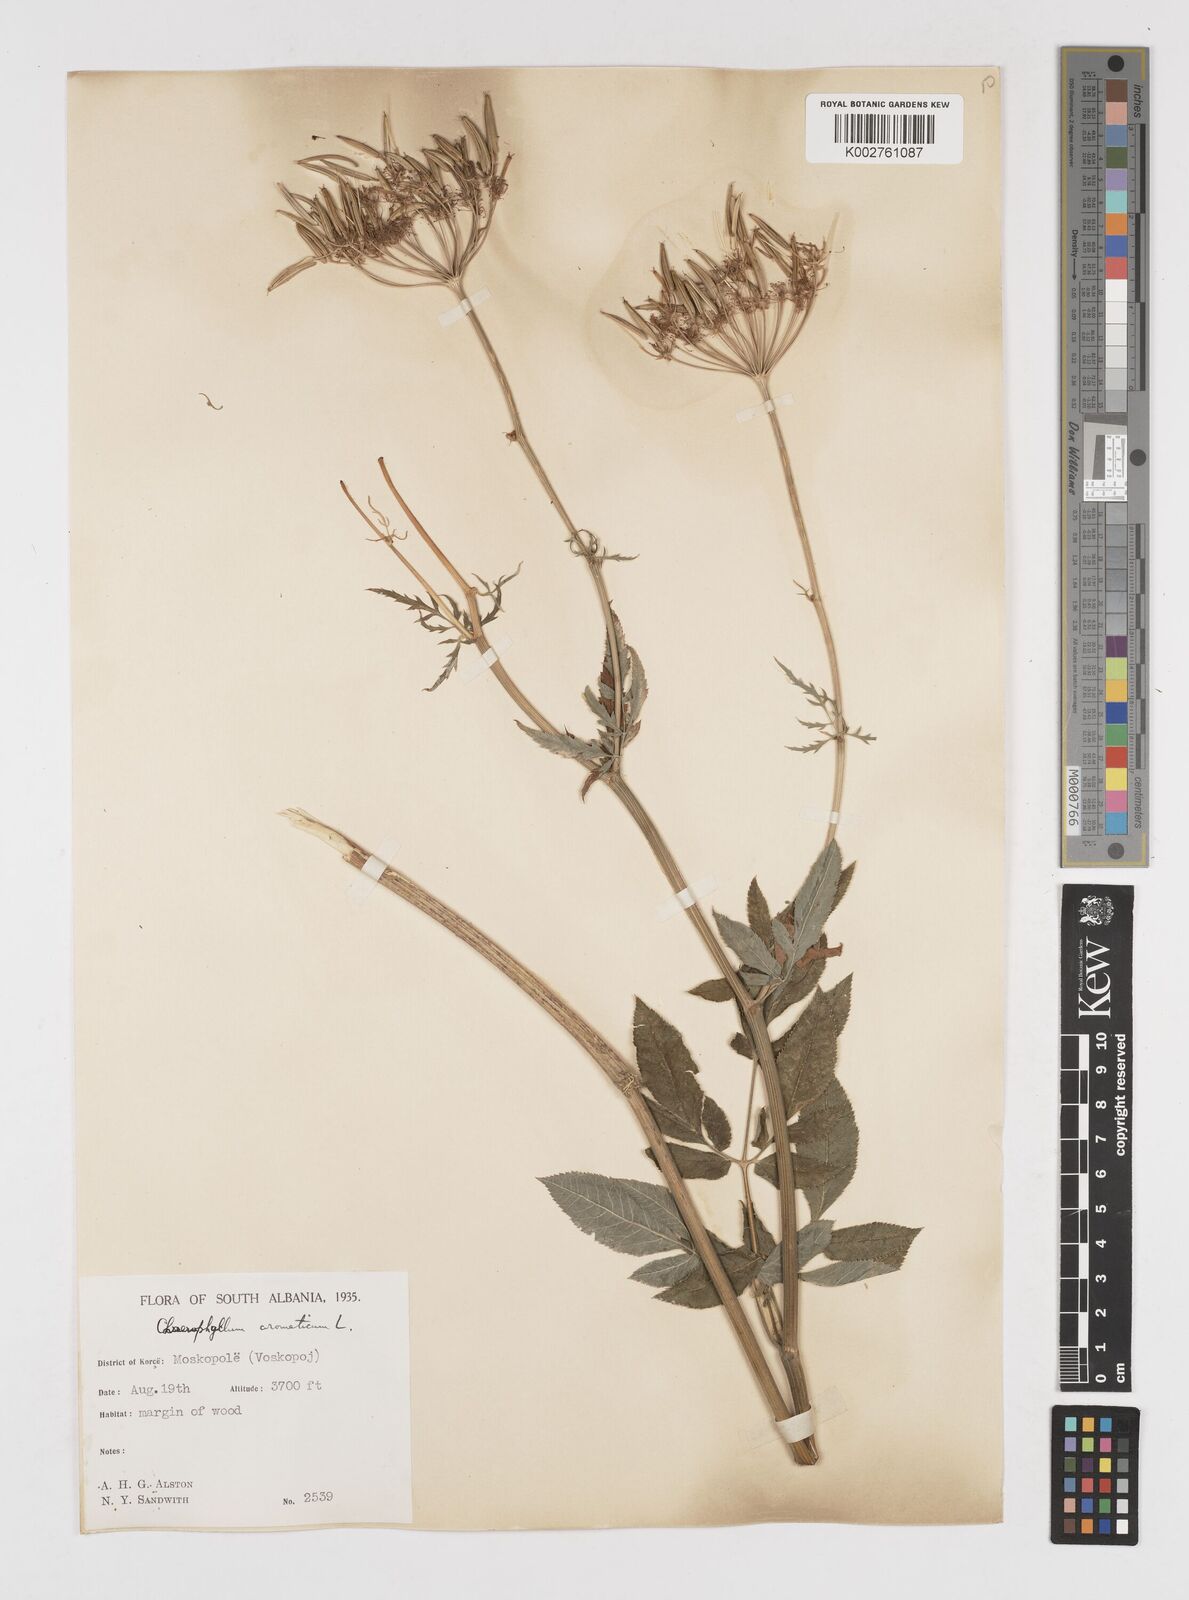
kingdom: Plantae
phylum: Tracheophyta
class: Magnoliopsida
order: Apiales
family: Apiaceae
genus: Chaerophyllum
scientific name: Chaerophyllum aromaticum
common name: Broadleaf chervil
